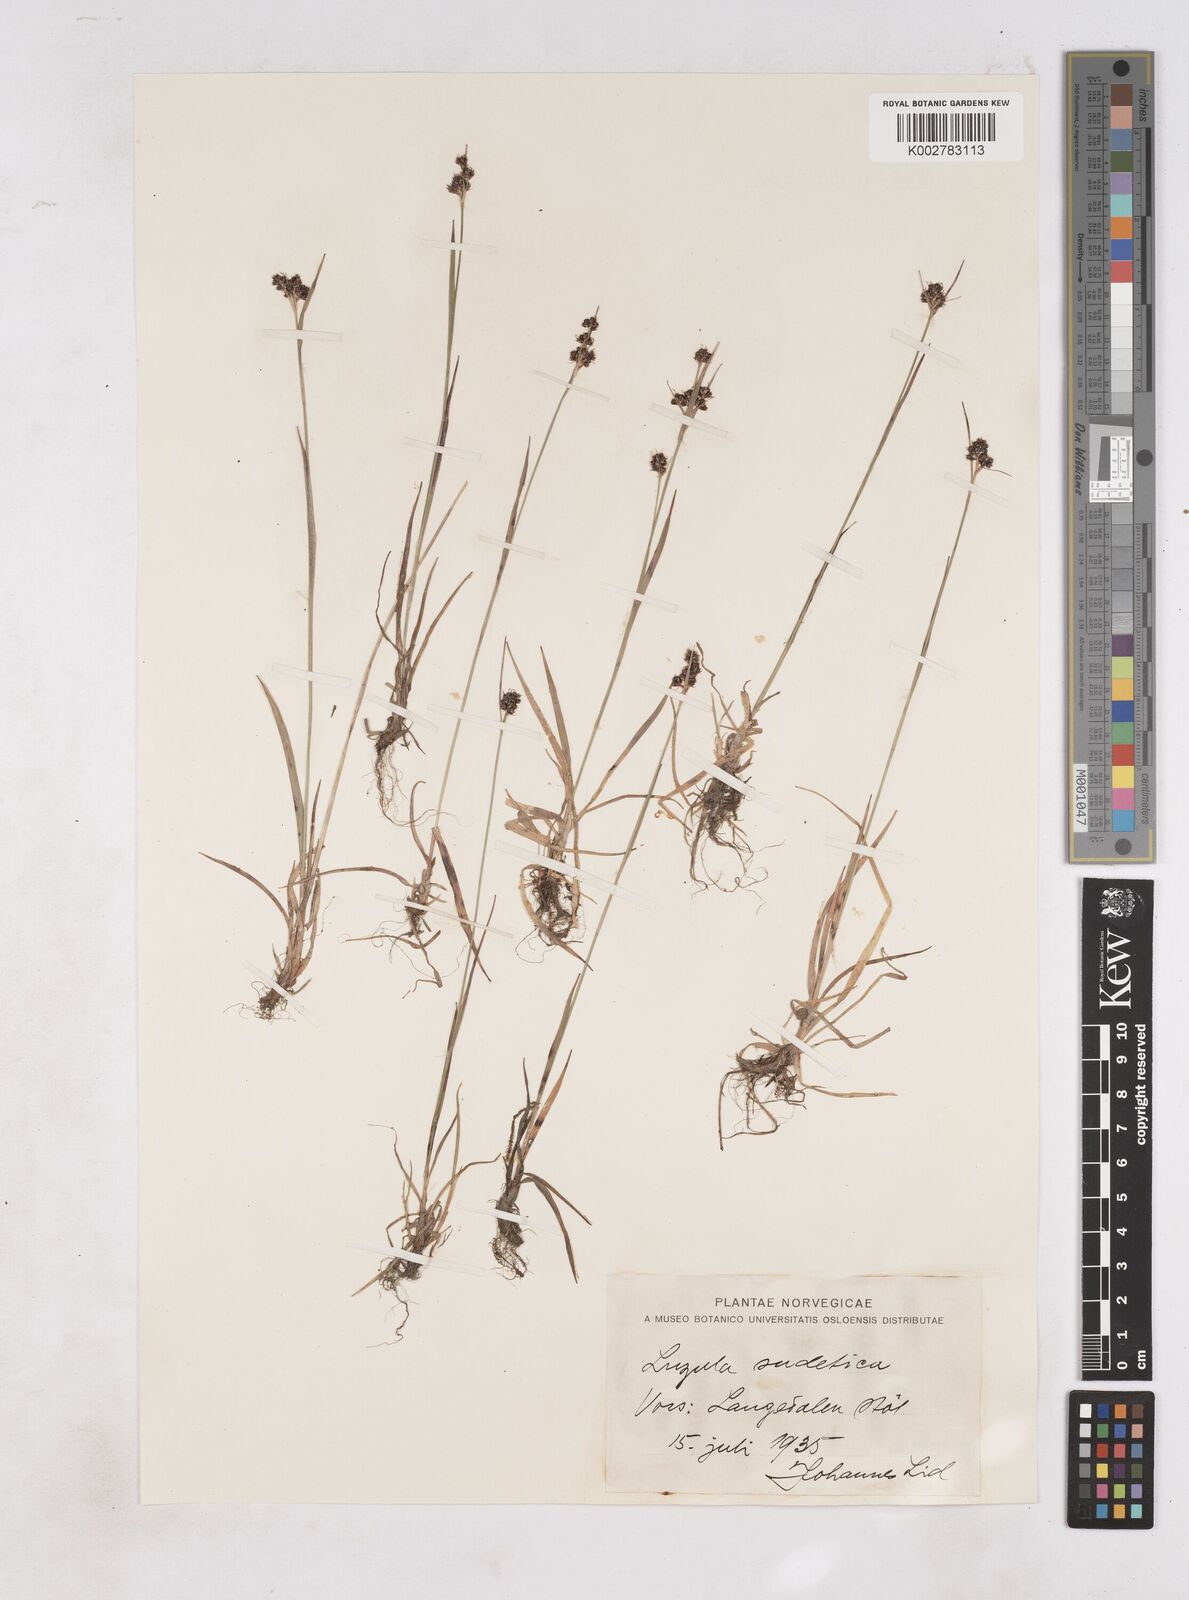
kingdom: Plantae
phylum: Tracheophyta
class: Liliopsida
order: Poales
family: Juncaceae
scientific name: Juncaceae
